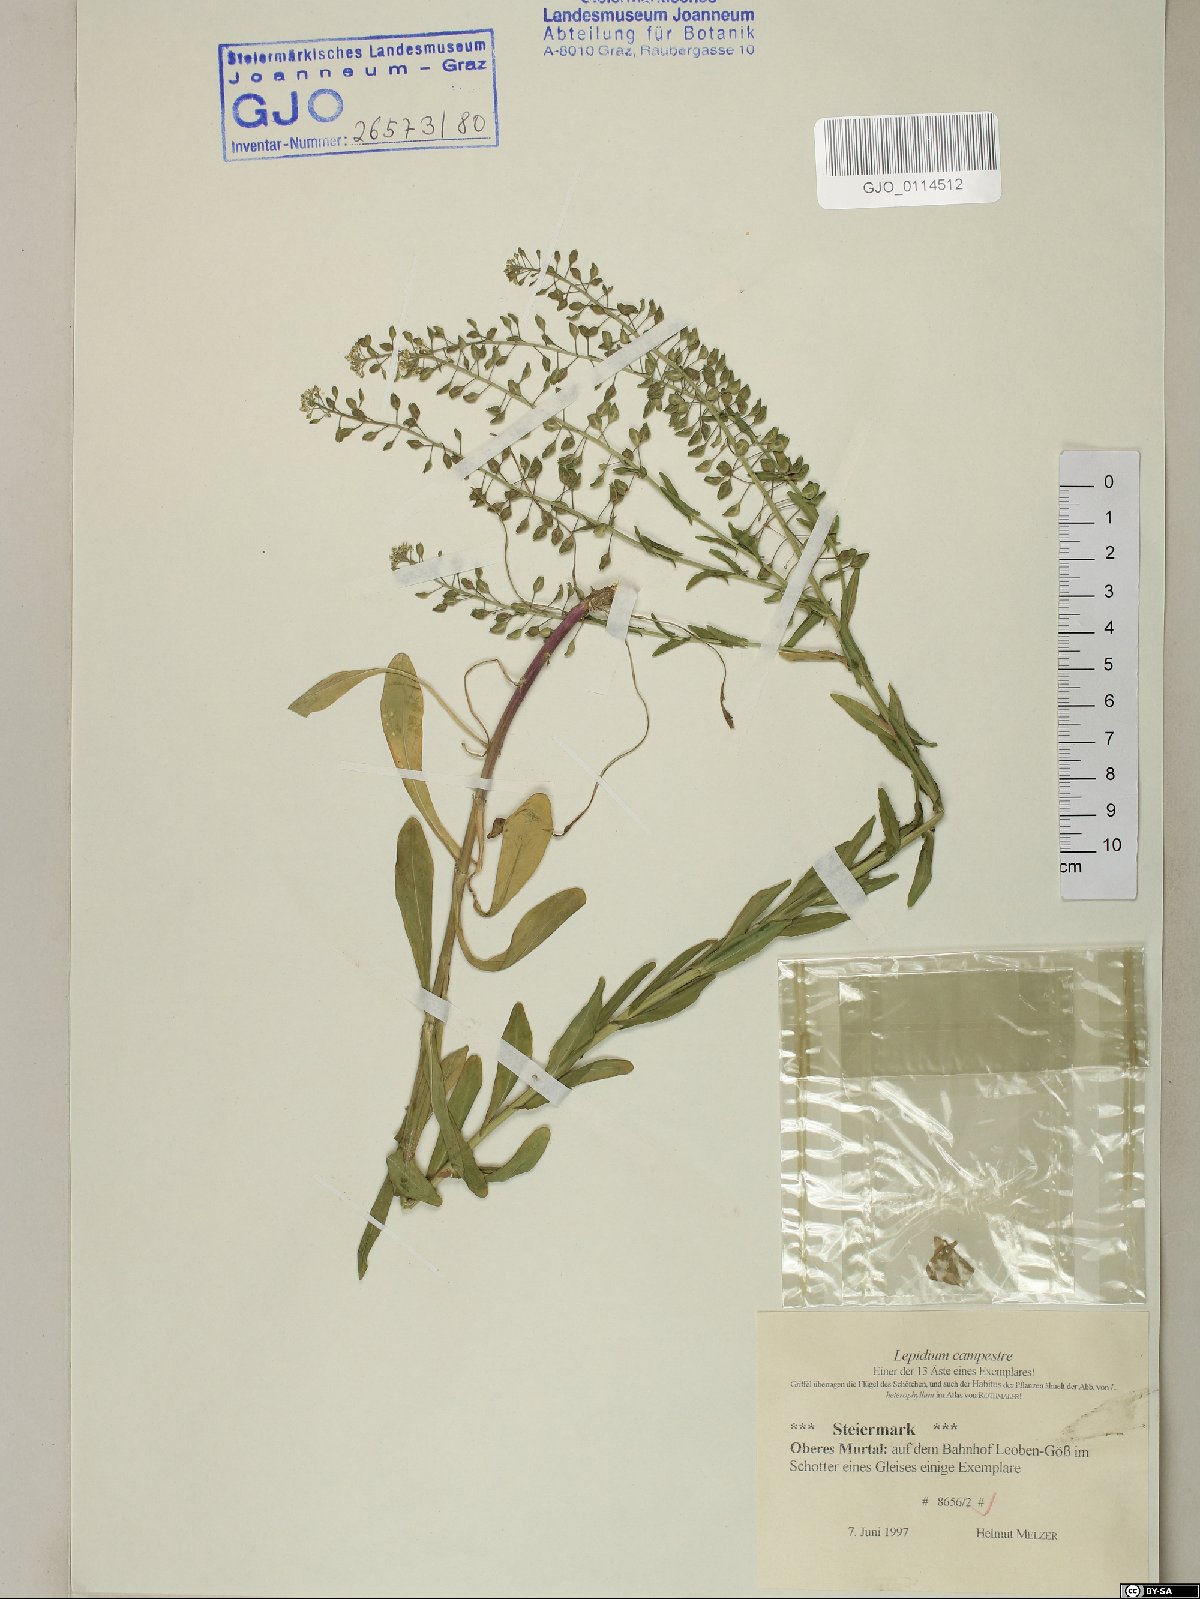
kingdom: Plantae
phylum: Tracheophyta
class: Magnoliopsida
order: Brassicales
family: Brassicaceae
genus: Lepidium
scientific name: Lepidium campestre
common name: Field pepperwort
